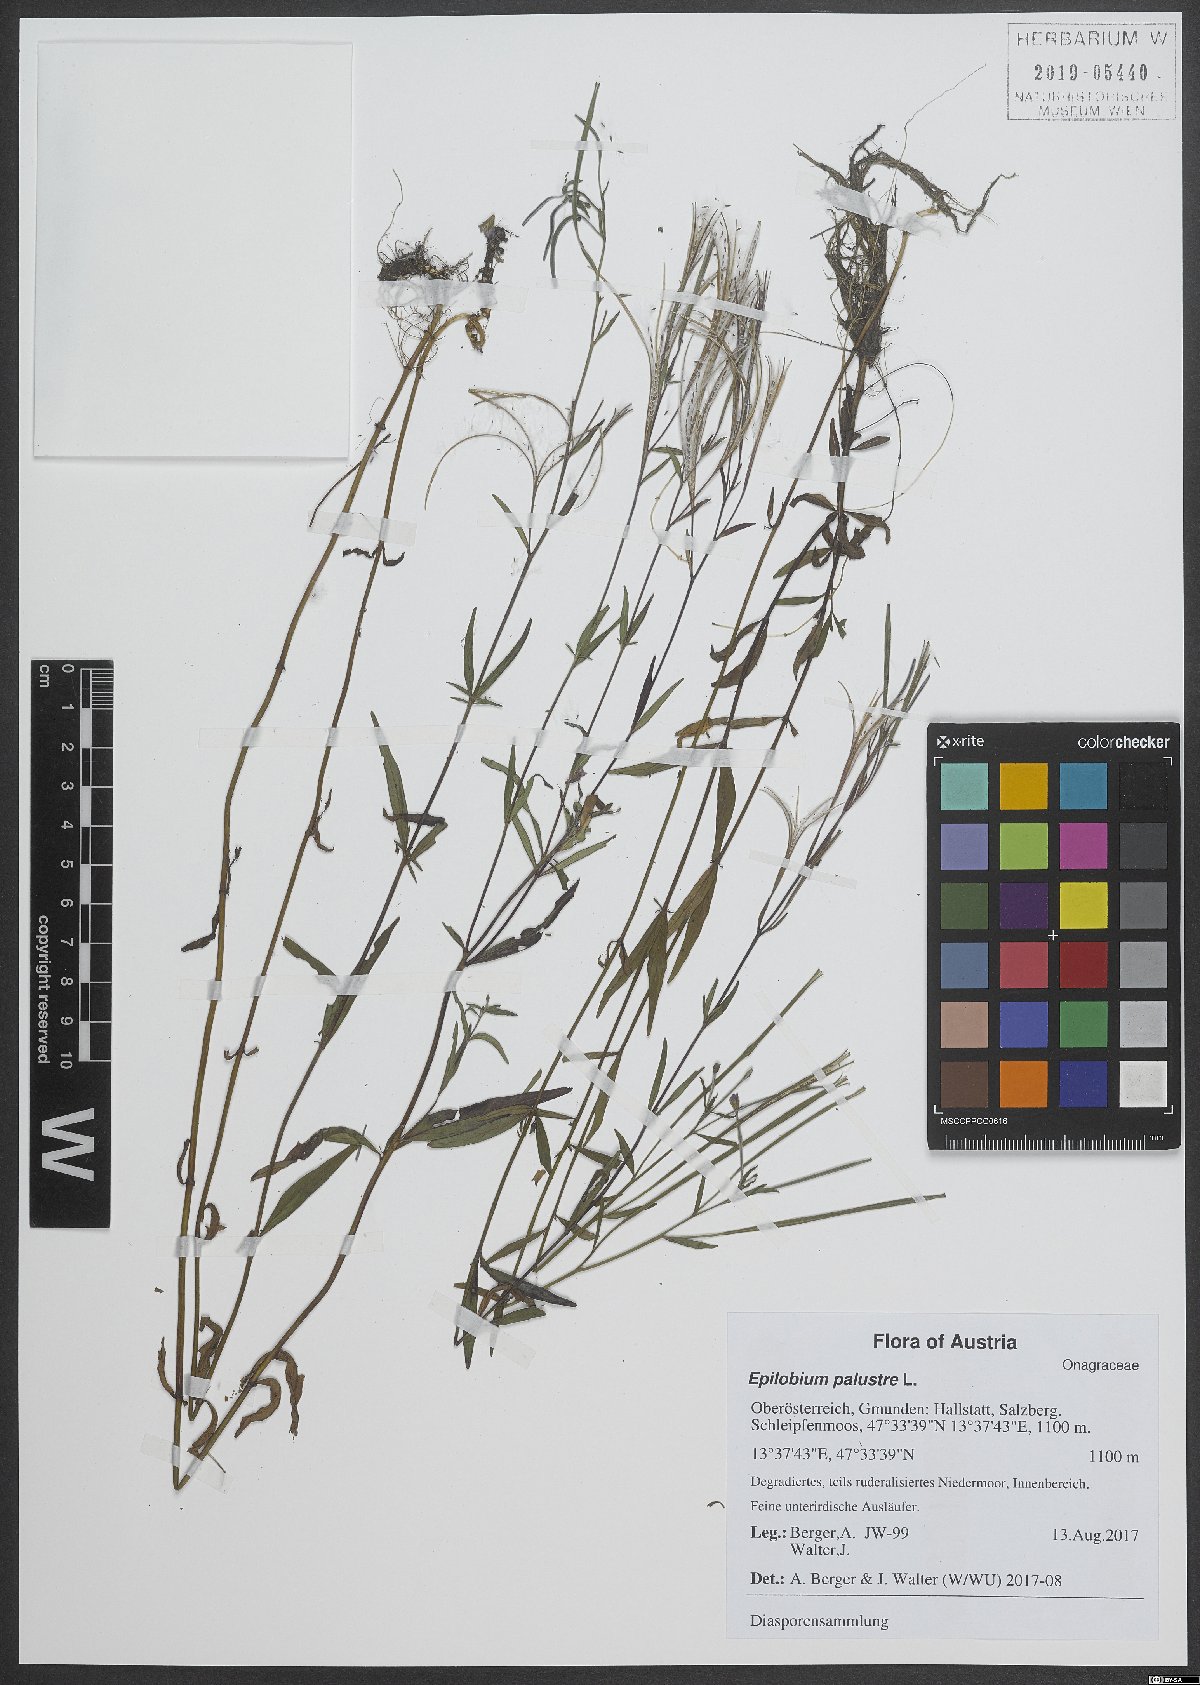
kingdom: Plantae
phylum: Tracheophyta
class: Magnoliopsida
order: Myrtales
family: Onagraceae
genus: Epilobium
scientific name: Epilobium palustre
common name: Marsh willowherb
